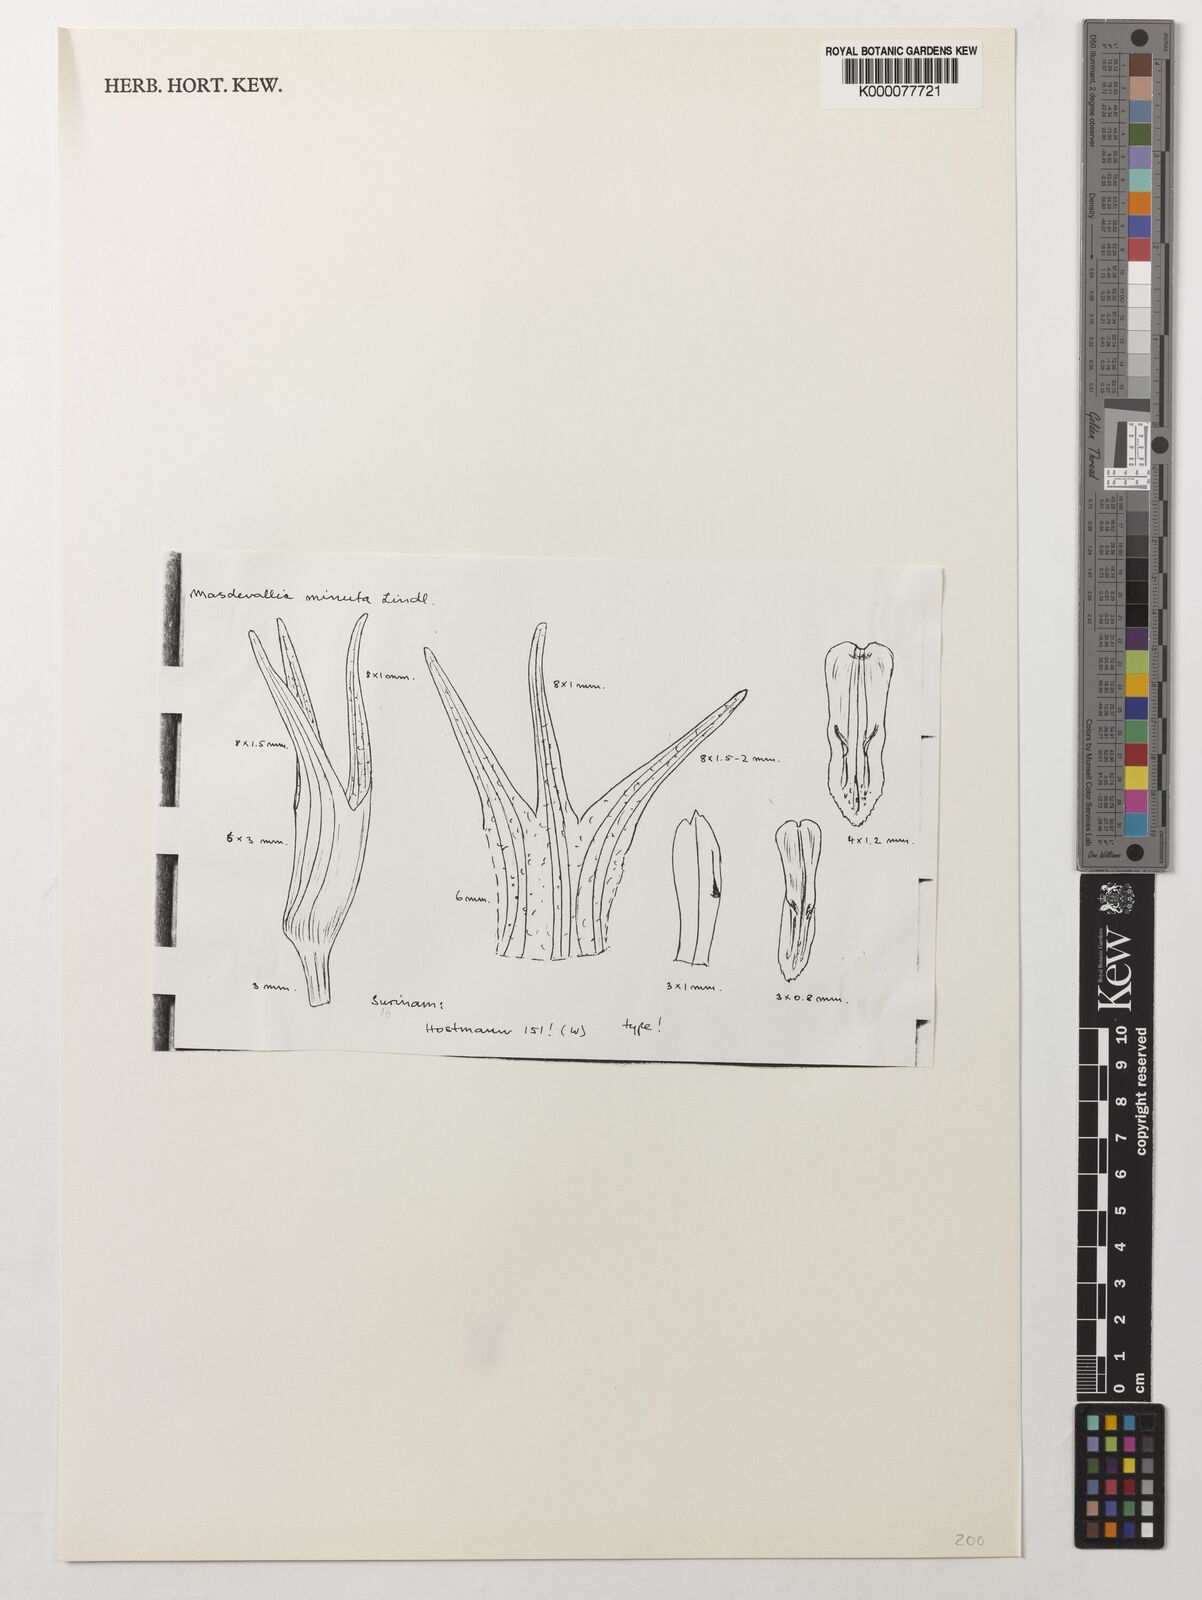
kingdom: Plantae
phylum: Tracheophyta
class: Liliopsida
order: Asparagales
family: Orchidaceae
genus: Masdevallia
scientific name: Masdevallia minuta
